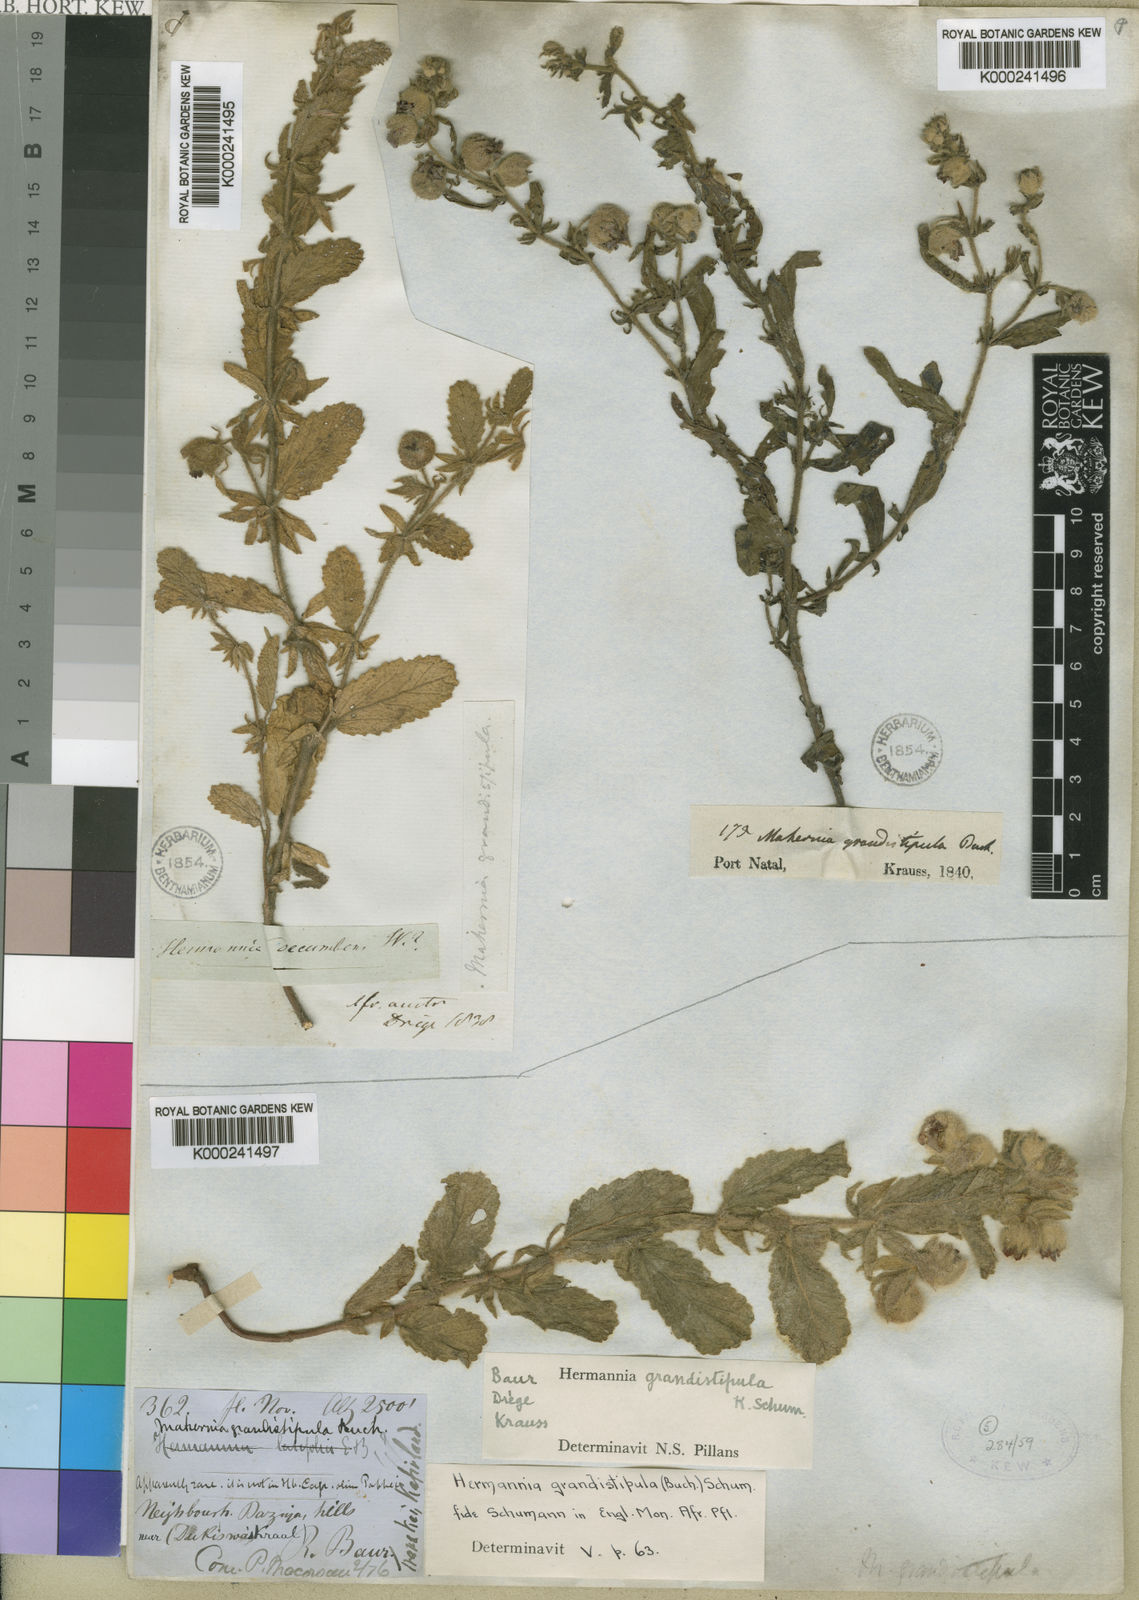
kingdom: Plantae
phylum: Tracheophyta
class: Magnoliopsida
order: Malvales
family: Malvaceae
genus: Hermannia
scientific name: Hermannia grandistipula
